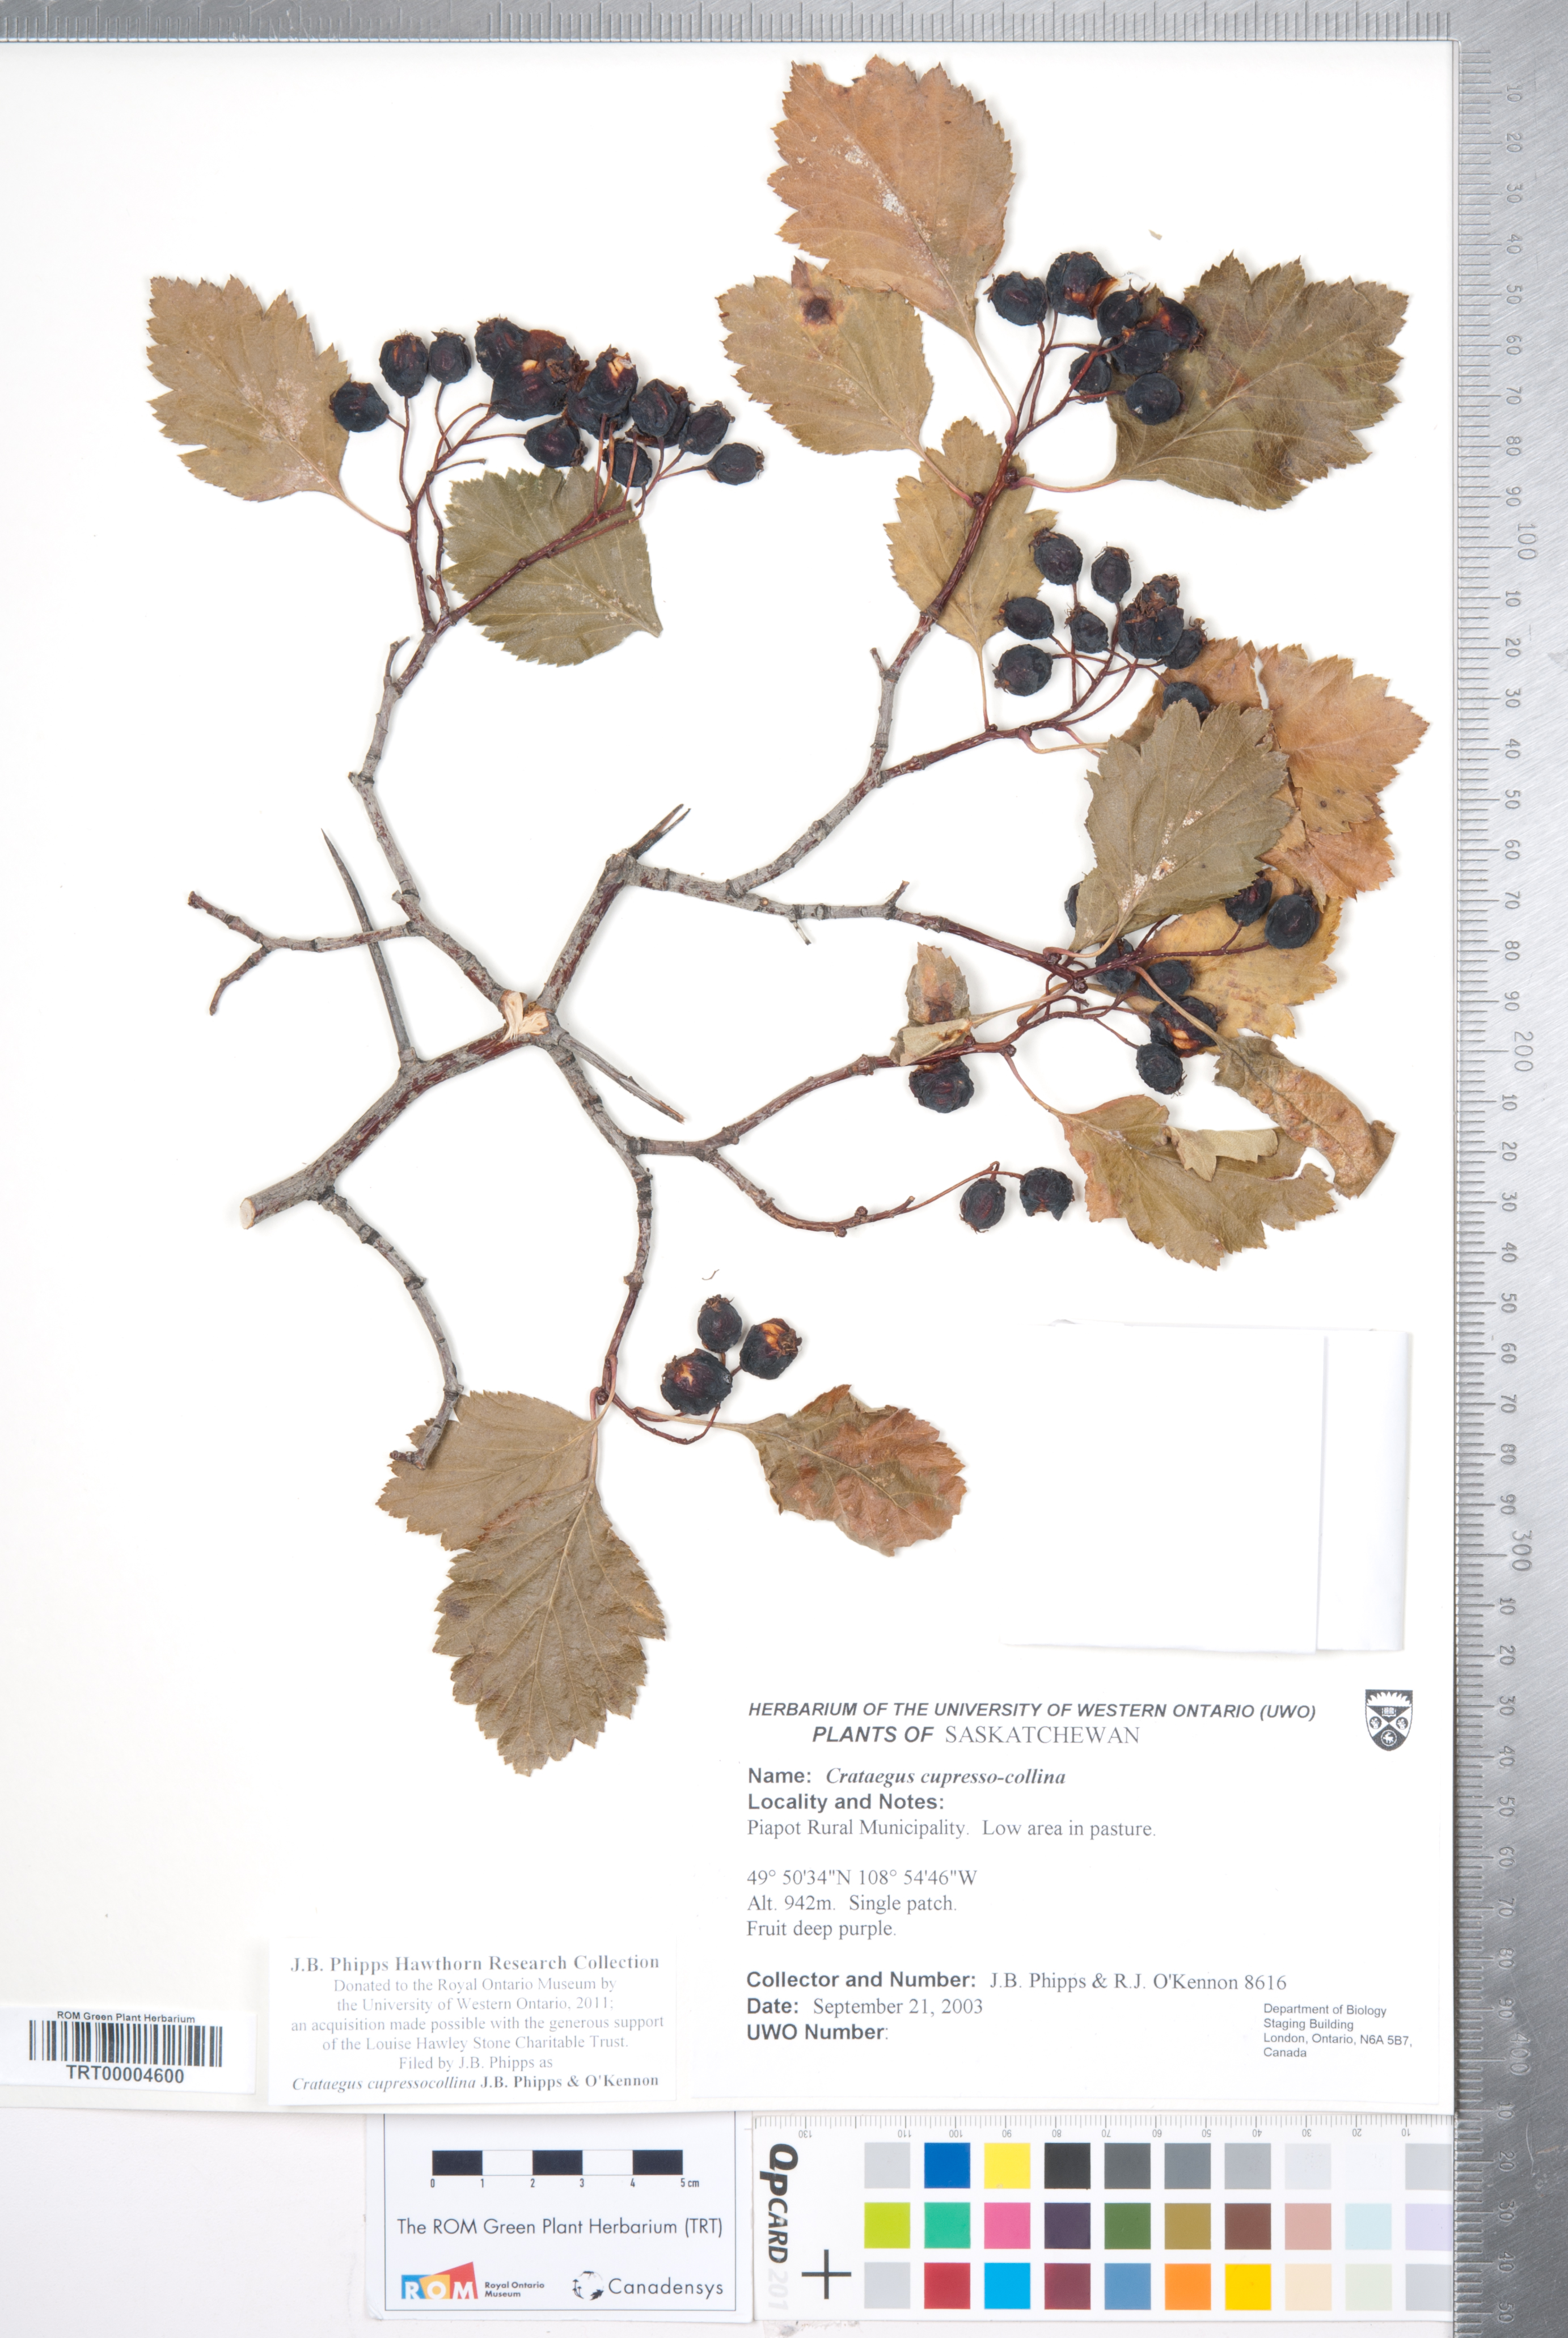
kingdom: Plantae
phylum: Tracheophyta
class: Magnoliopsida
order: Rosales
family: Rosaceae
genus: Crataegus
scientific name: Crataegus cupressocollina
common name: Cypress hills hawthorn
